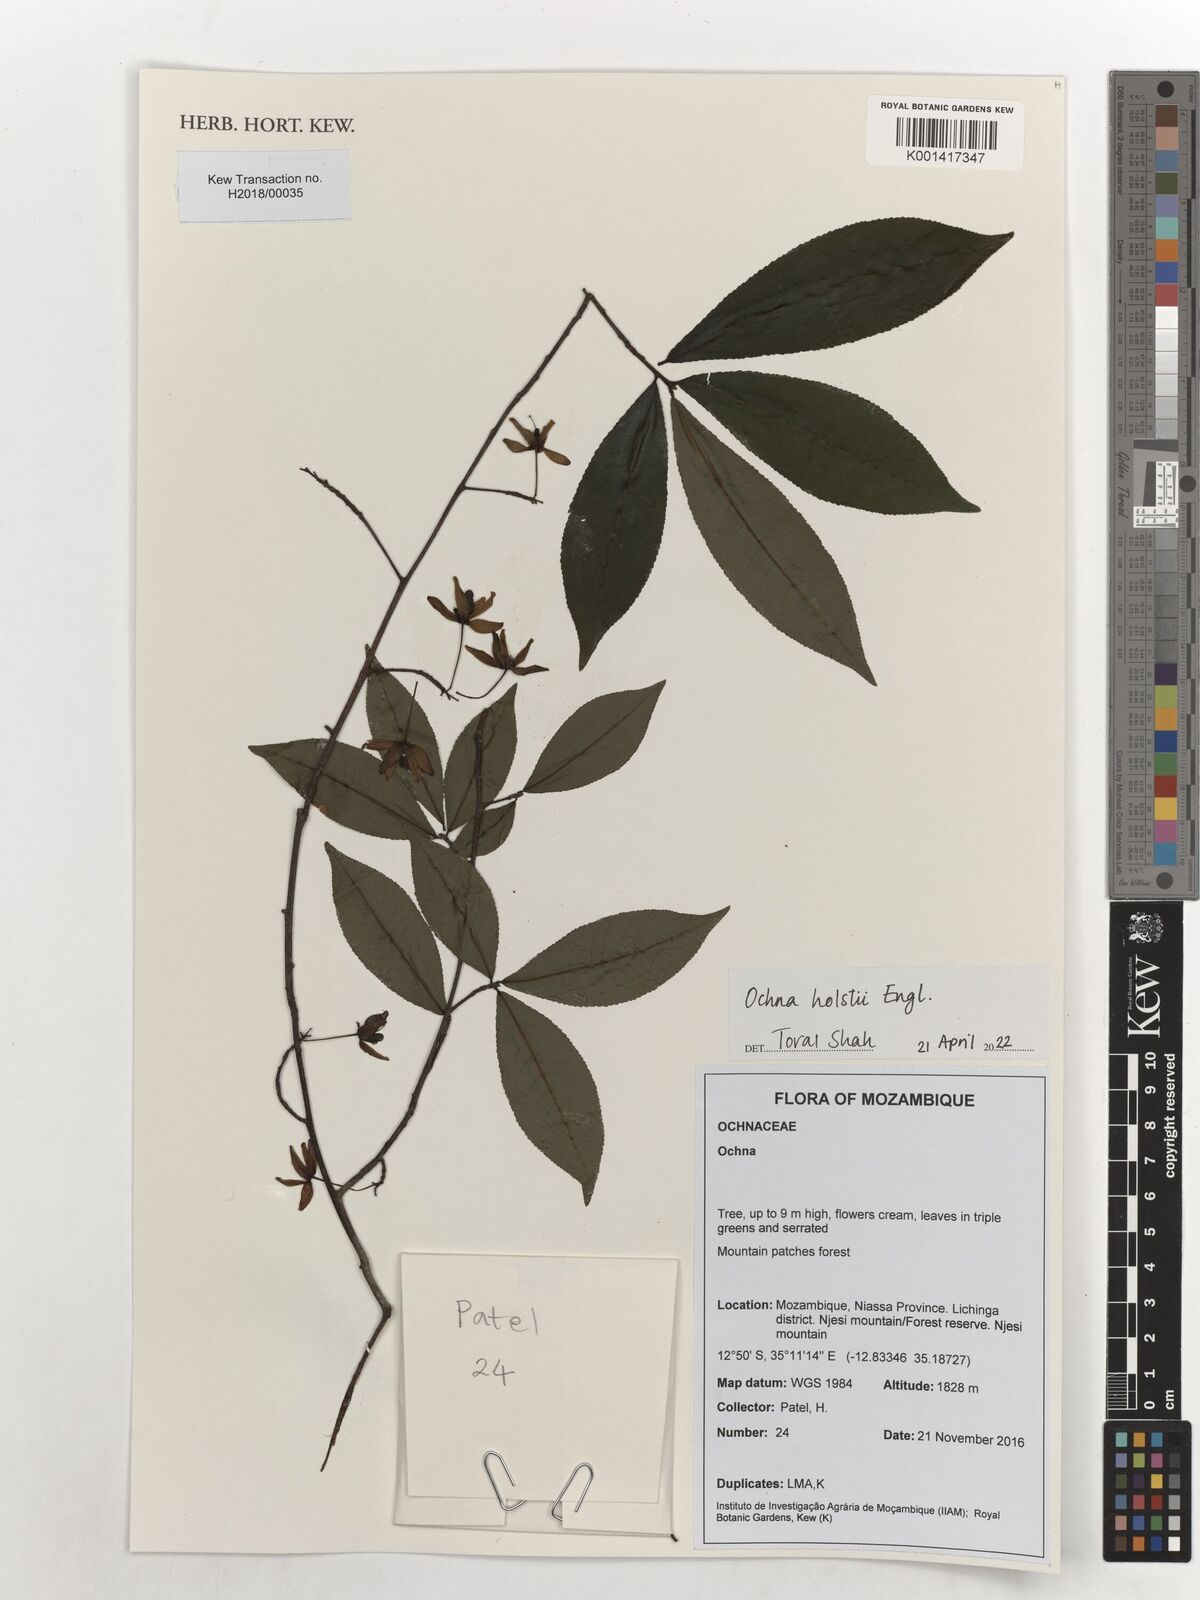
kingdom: Plantae
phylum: Tracheophyta
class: Magnoliopsida
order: Malpighiales
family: Ochnaceae
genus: Ochna
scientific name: Ochna holstii
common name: Red ironwood
